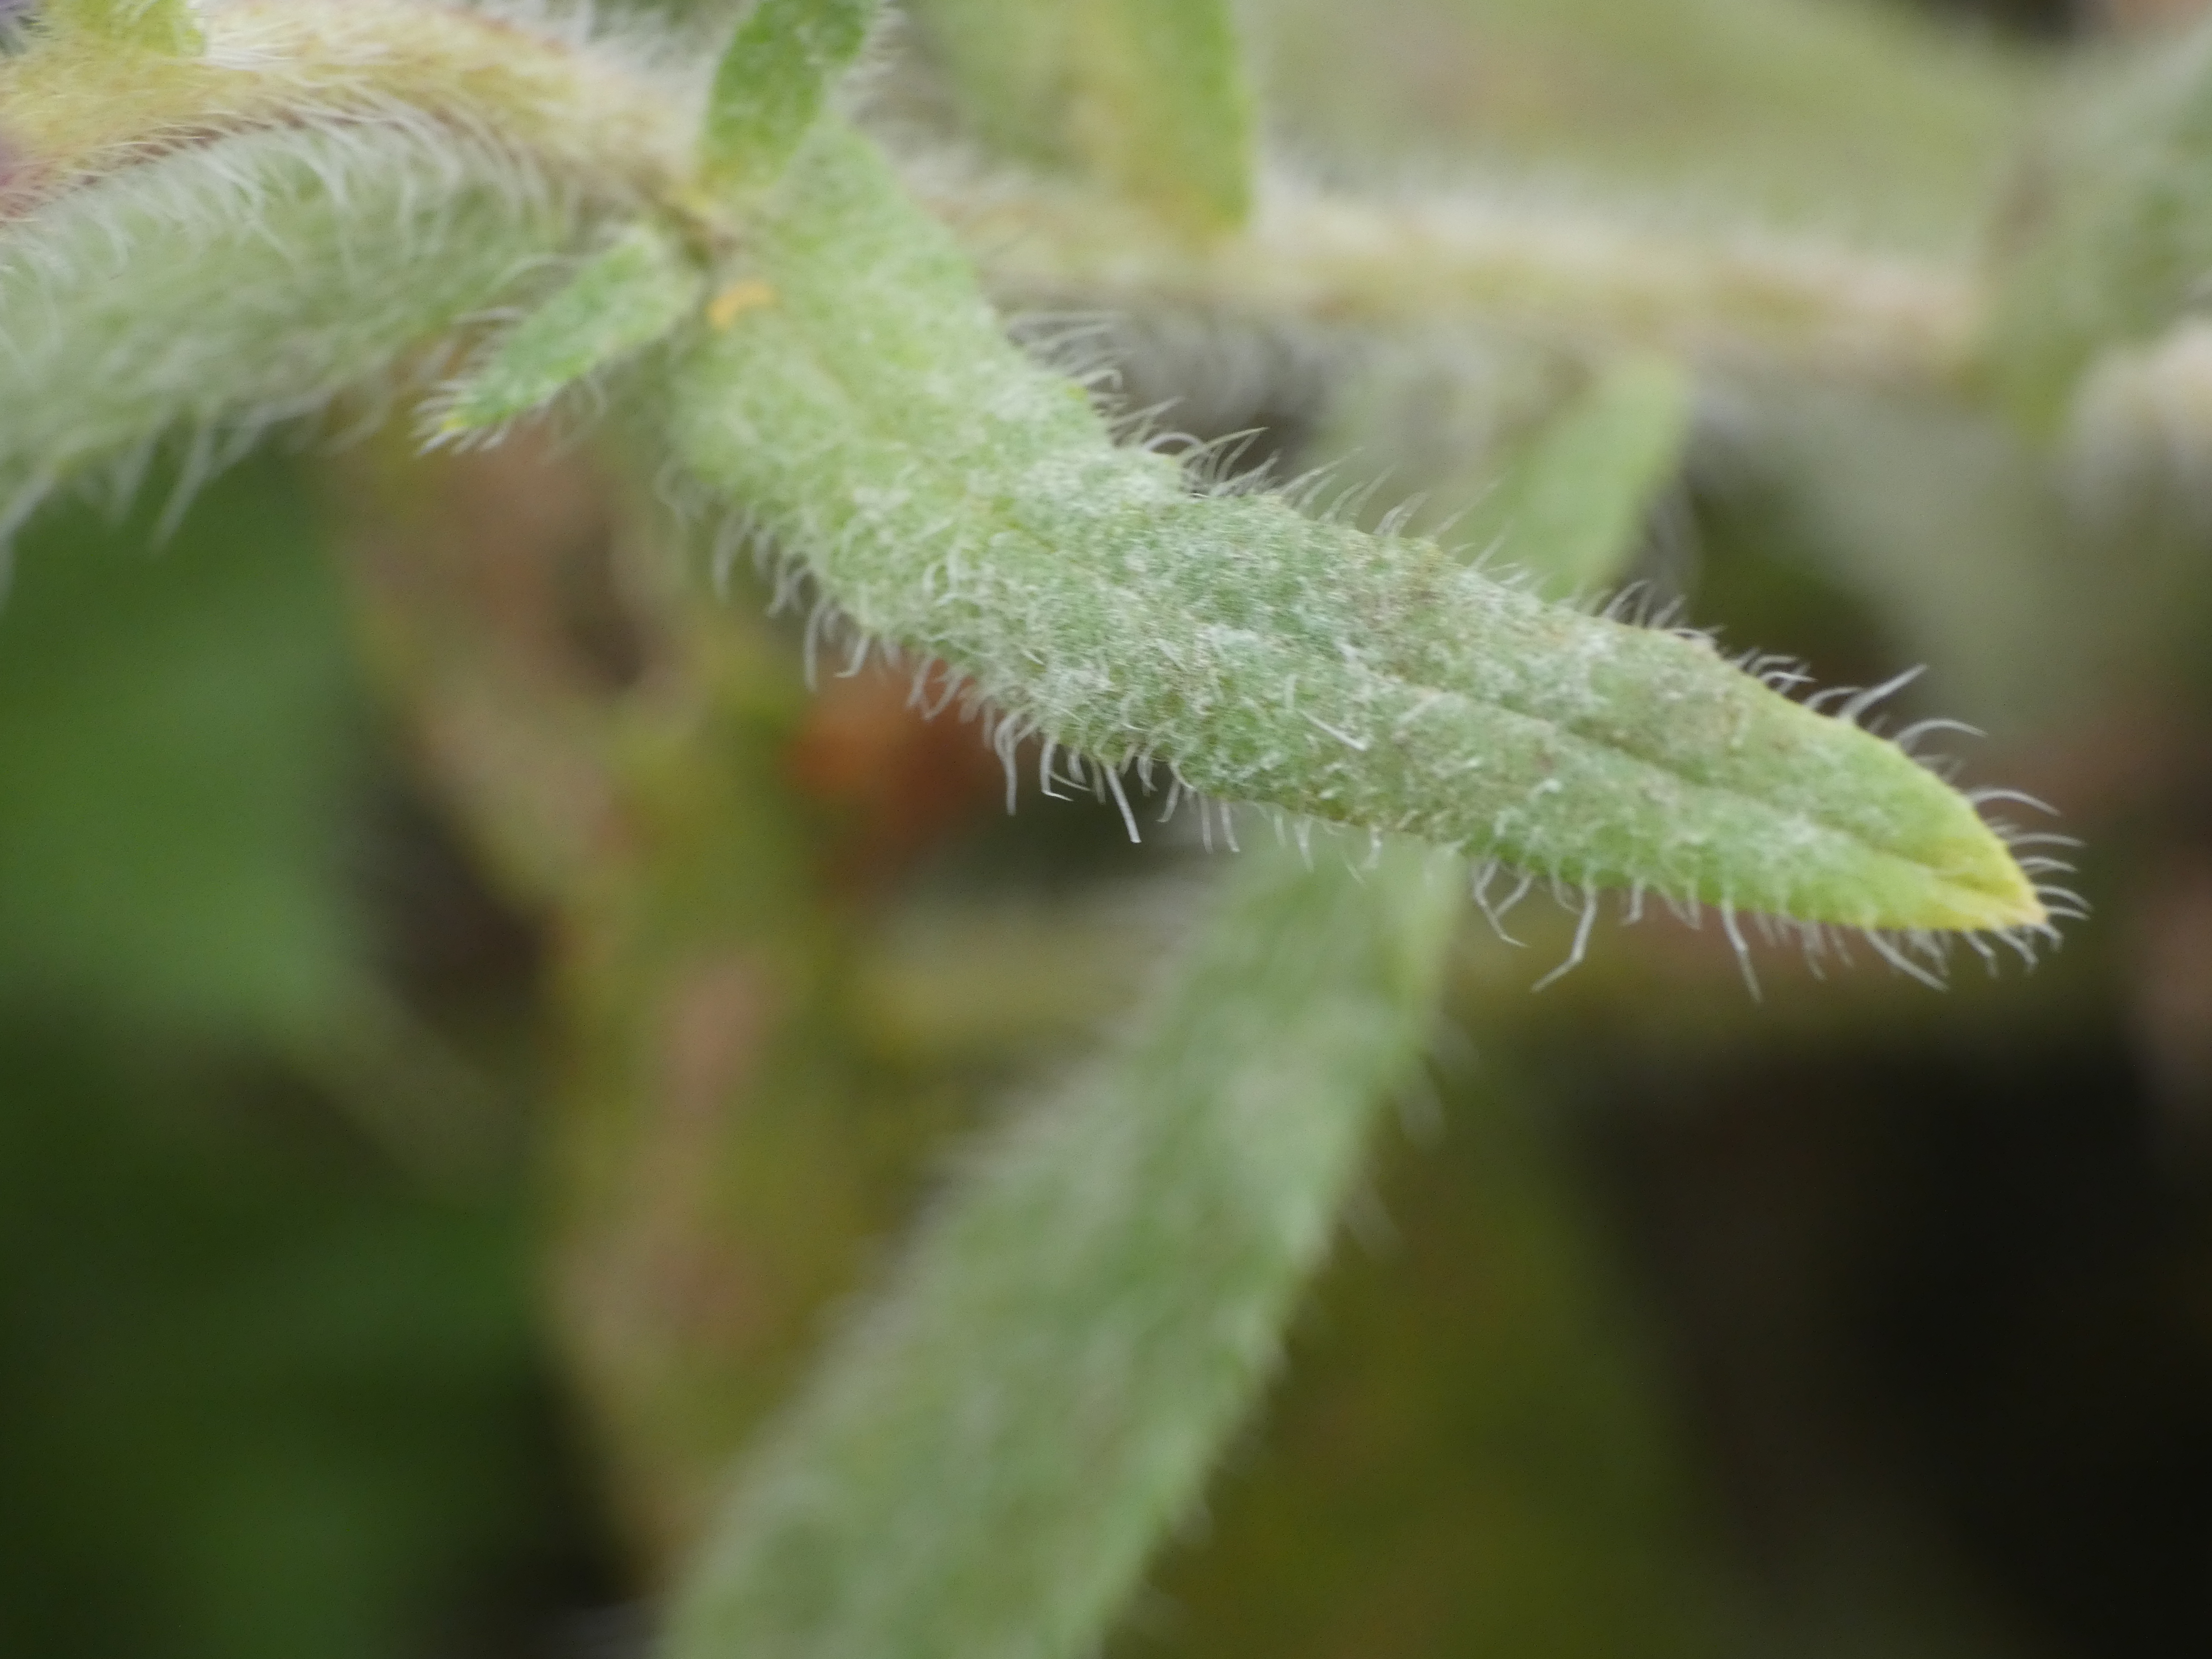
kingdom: Plantae
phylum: Tracheophyta
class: Magnoliopsida
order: Boraginales
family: Boraginaceae
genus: Anchusa
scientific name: Anchusa officinalis
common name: Læge-oksetunge
